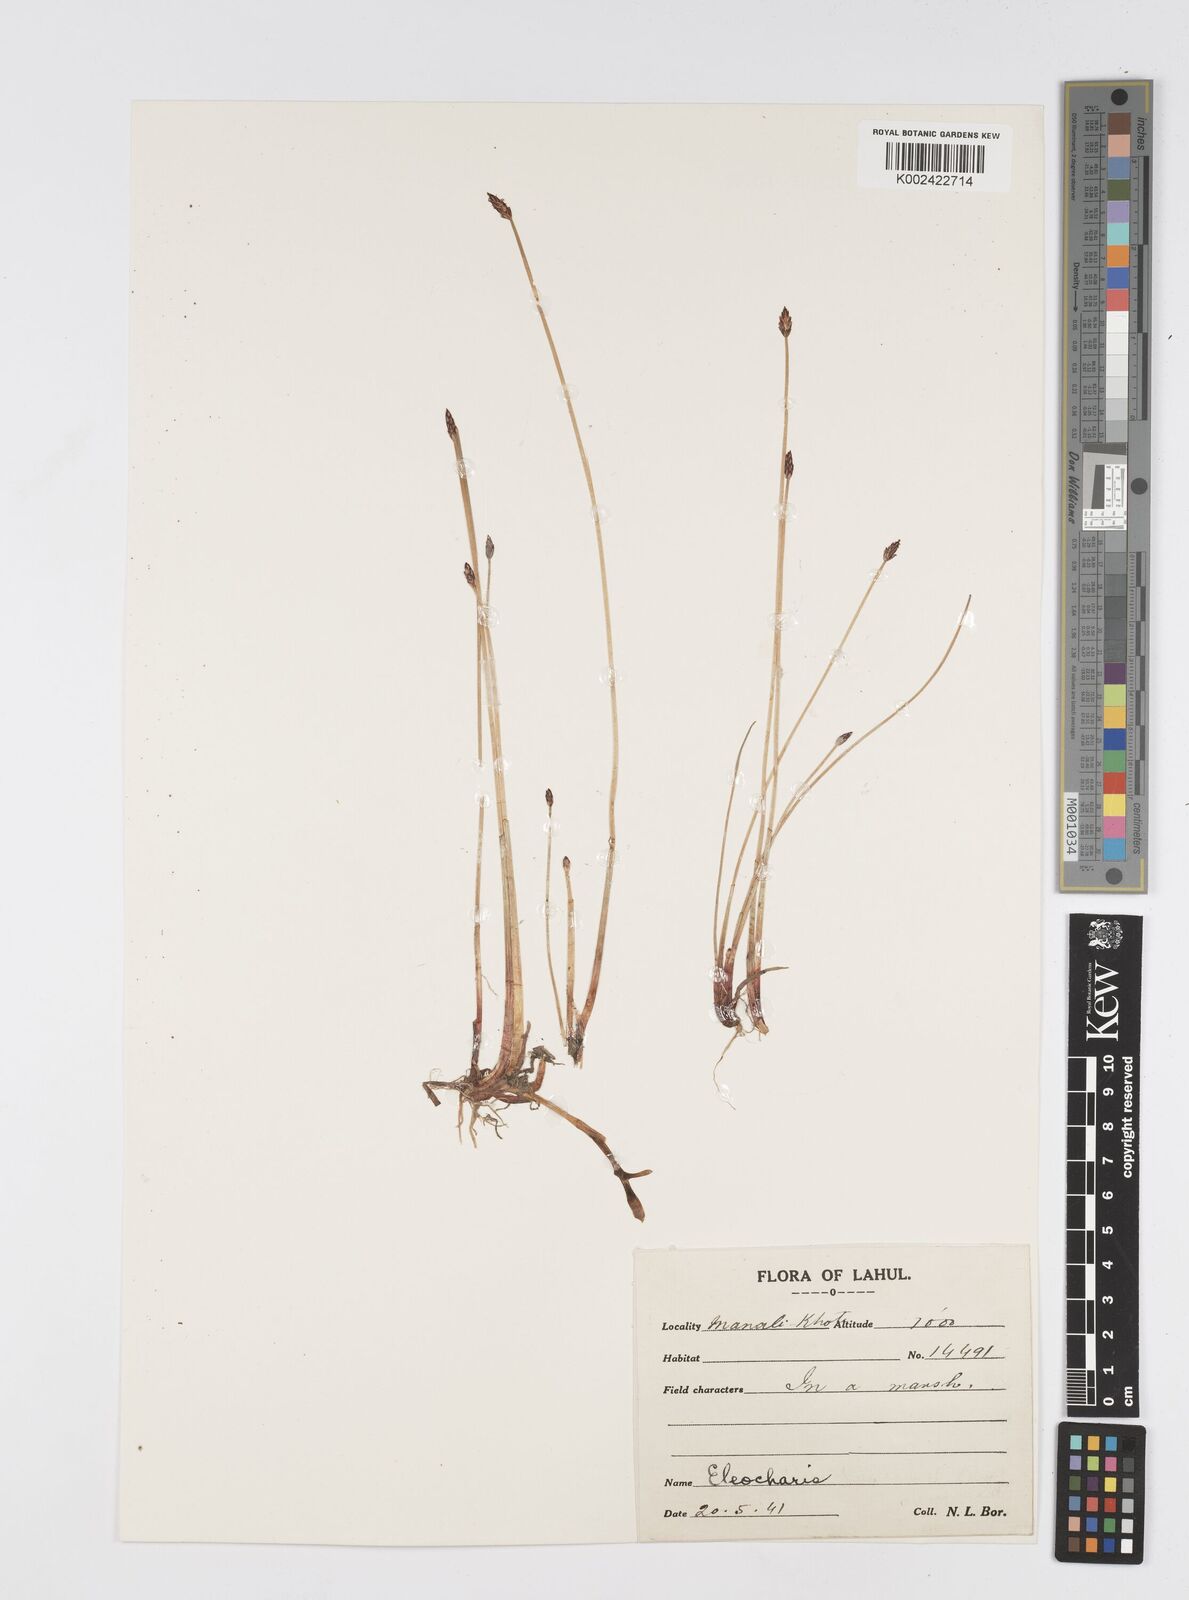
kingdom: Plantae
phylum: Tracheophyta
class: Liliopsida
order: Poales
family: Cyperaceae
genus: Eleocharis
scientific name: Eleocharis
